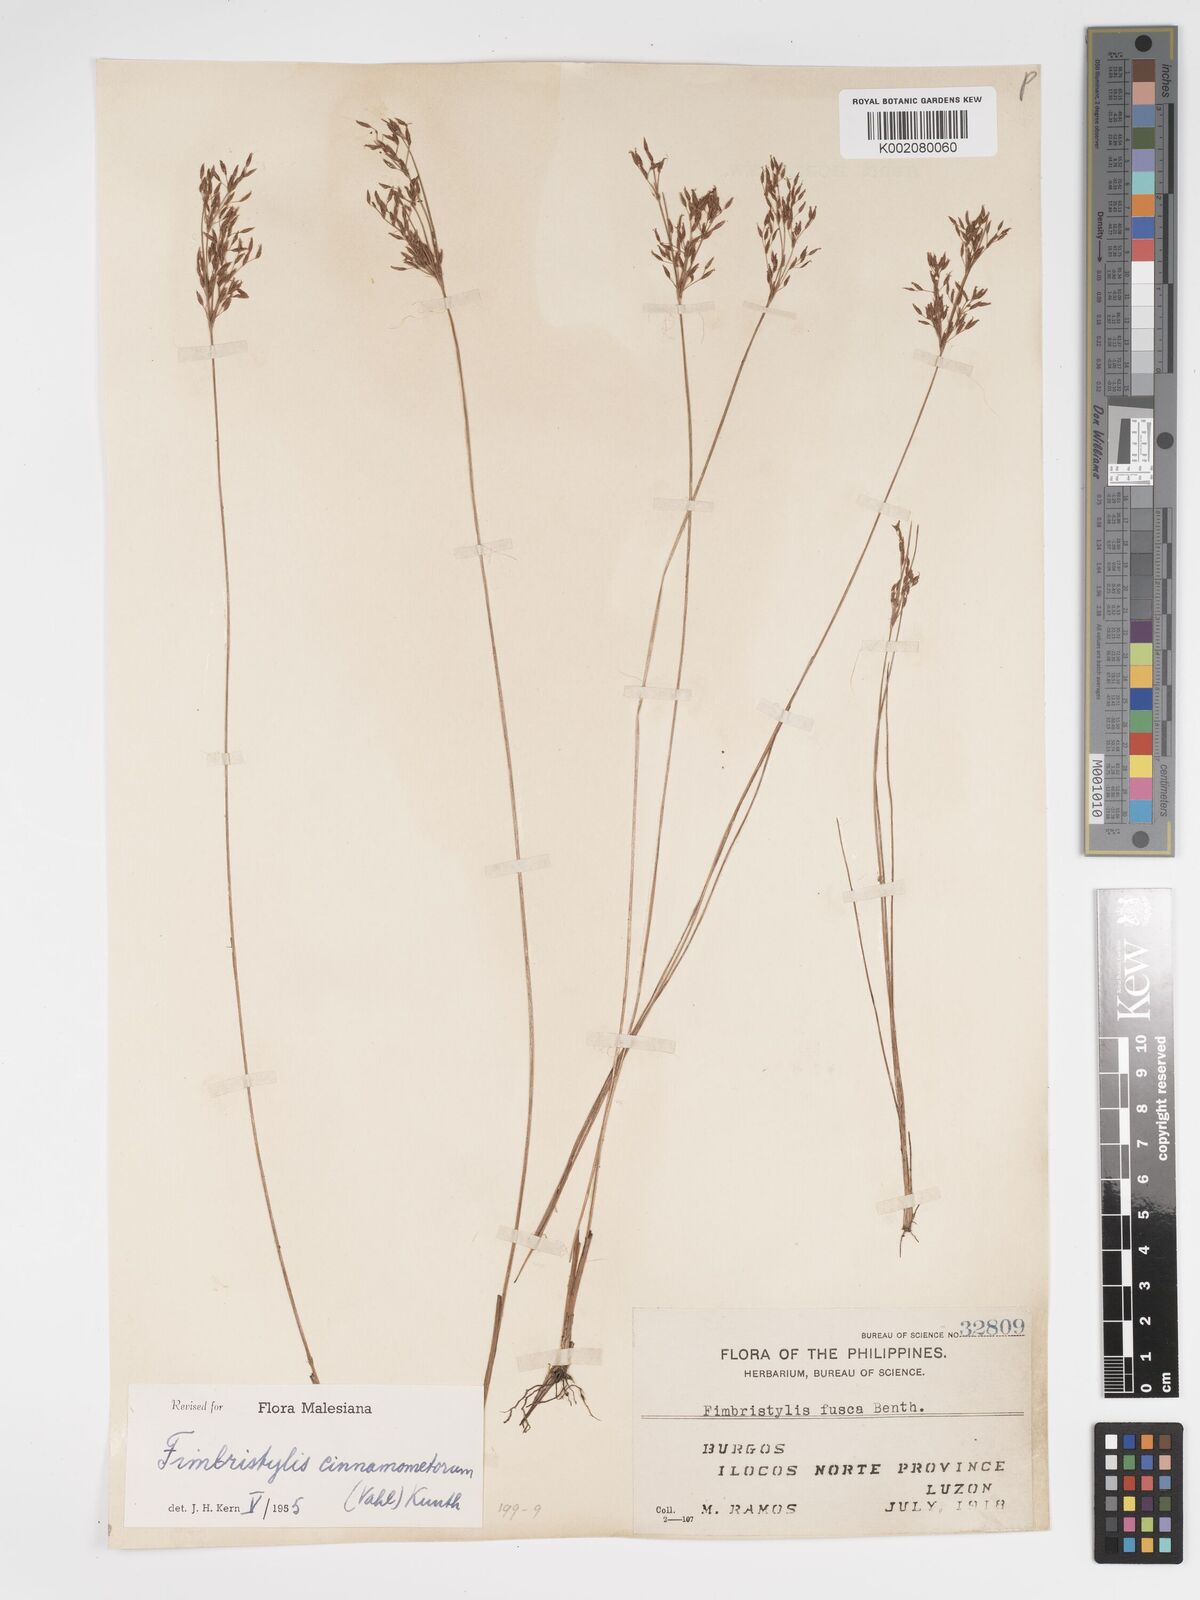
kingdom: Plantae
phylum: Tracheophyta
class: Liliopsida
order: Poales
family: Cyperaceae
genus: Fimbristylis
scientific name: Fimbristylis cinnamometorum
